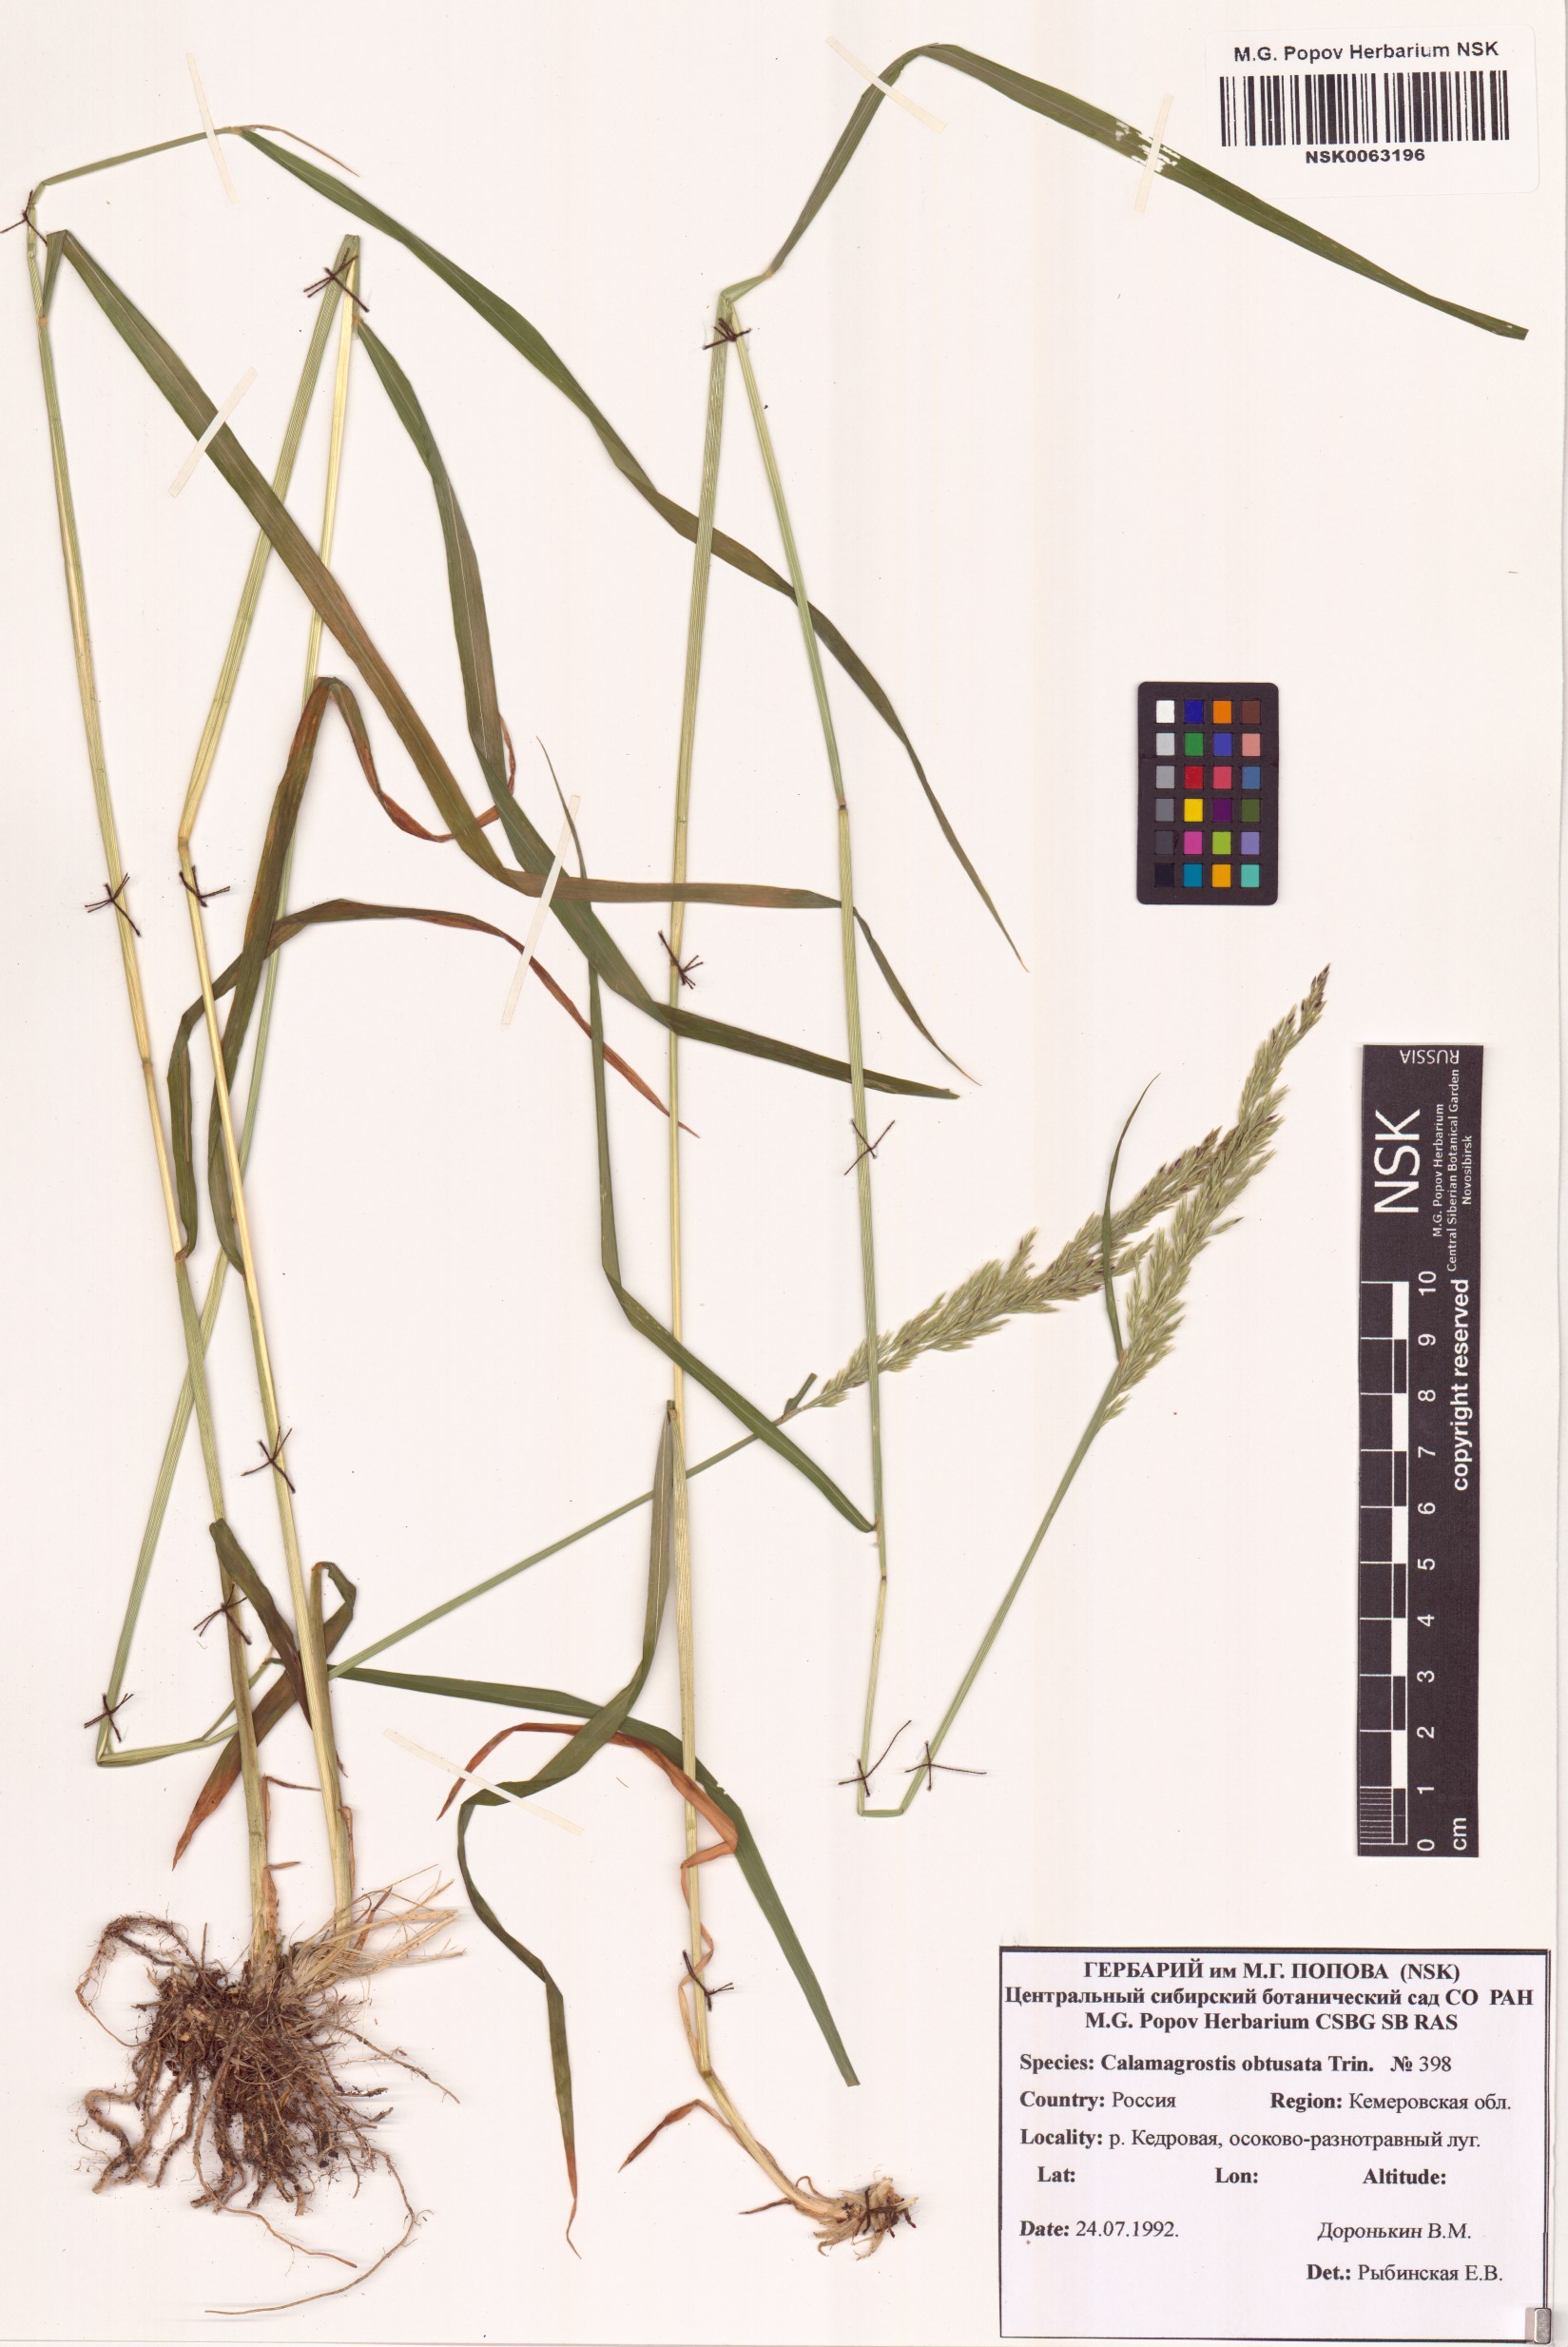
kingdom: Plantae
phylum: Tracheophyta
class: Liliopsida
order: Poales
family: Poaceae
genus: Calamagrostis
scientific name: Calamagrostis obtusata
